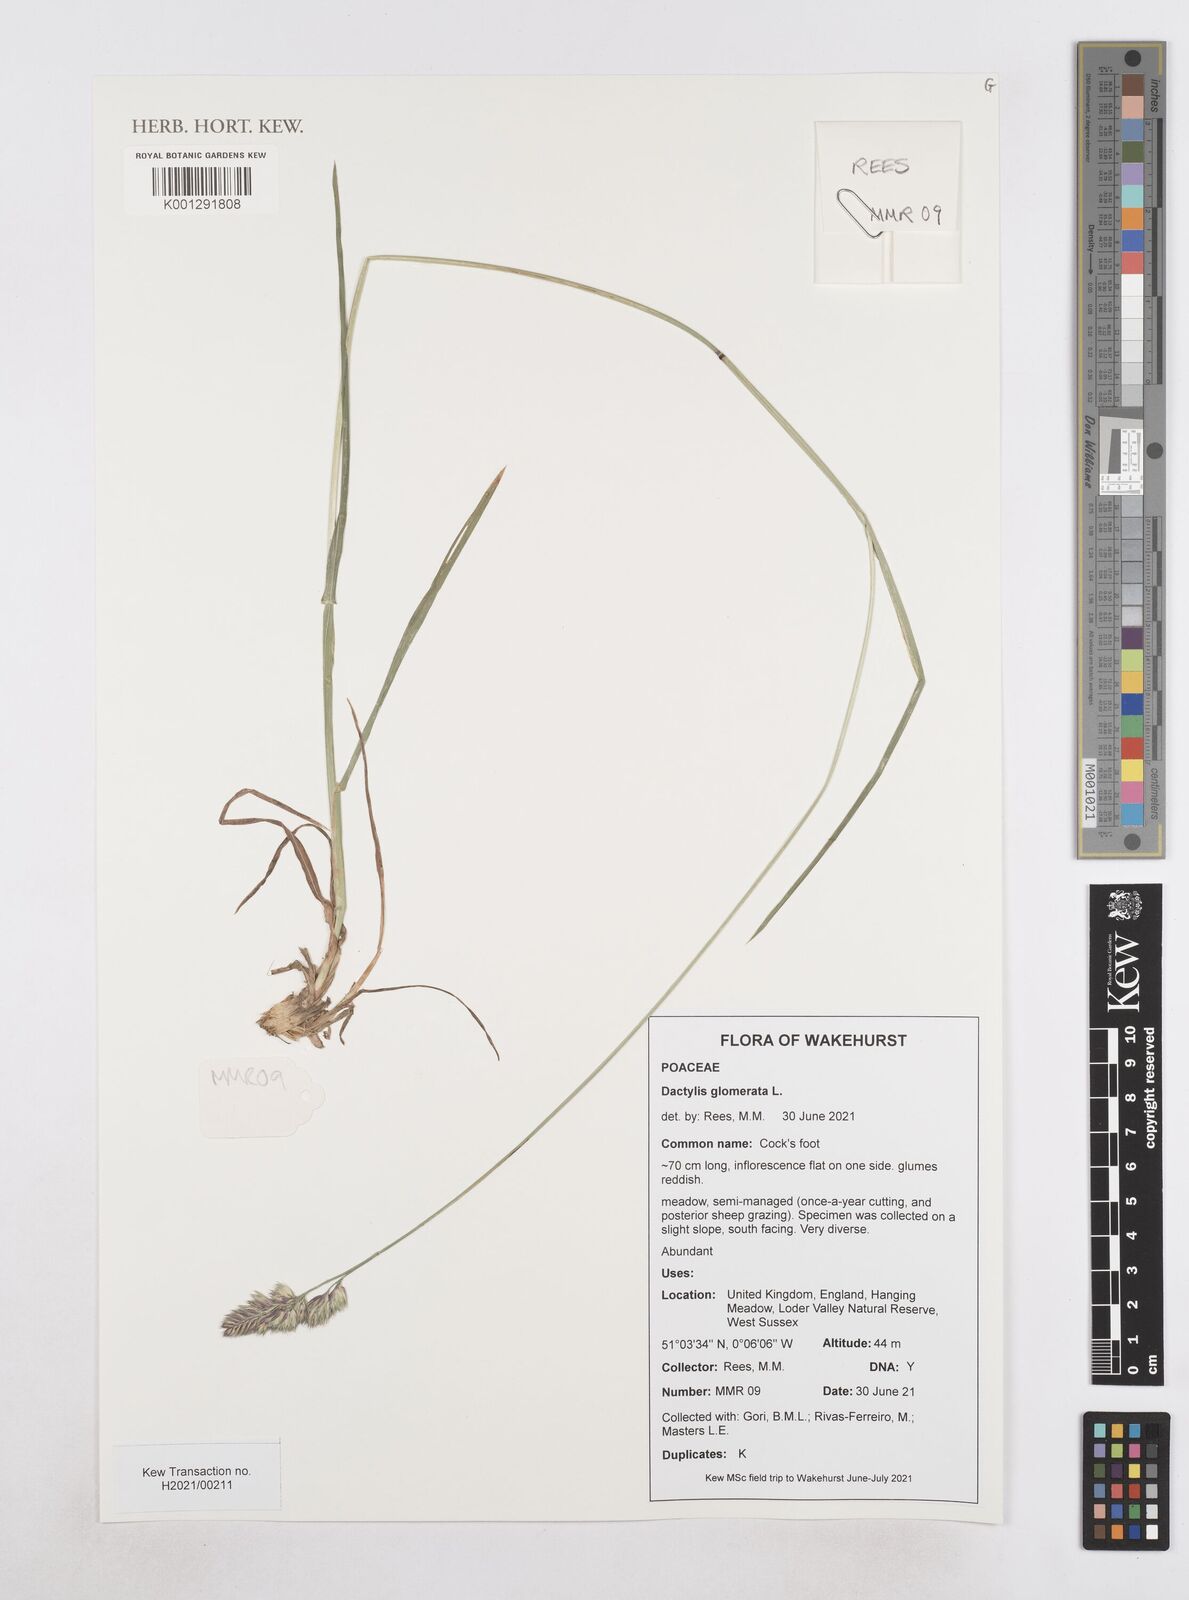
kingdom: Plantae
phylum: Tracheophyta
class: Liliopsida
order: Poales
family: Poaceae
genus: Dactylis
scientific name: Dactylis glomerata
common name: Orchardgrass
